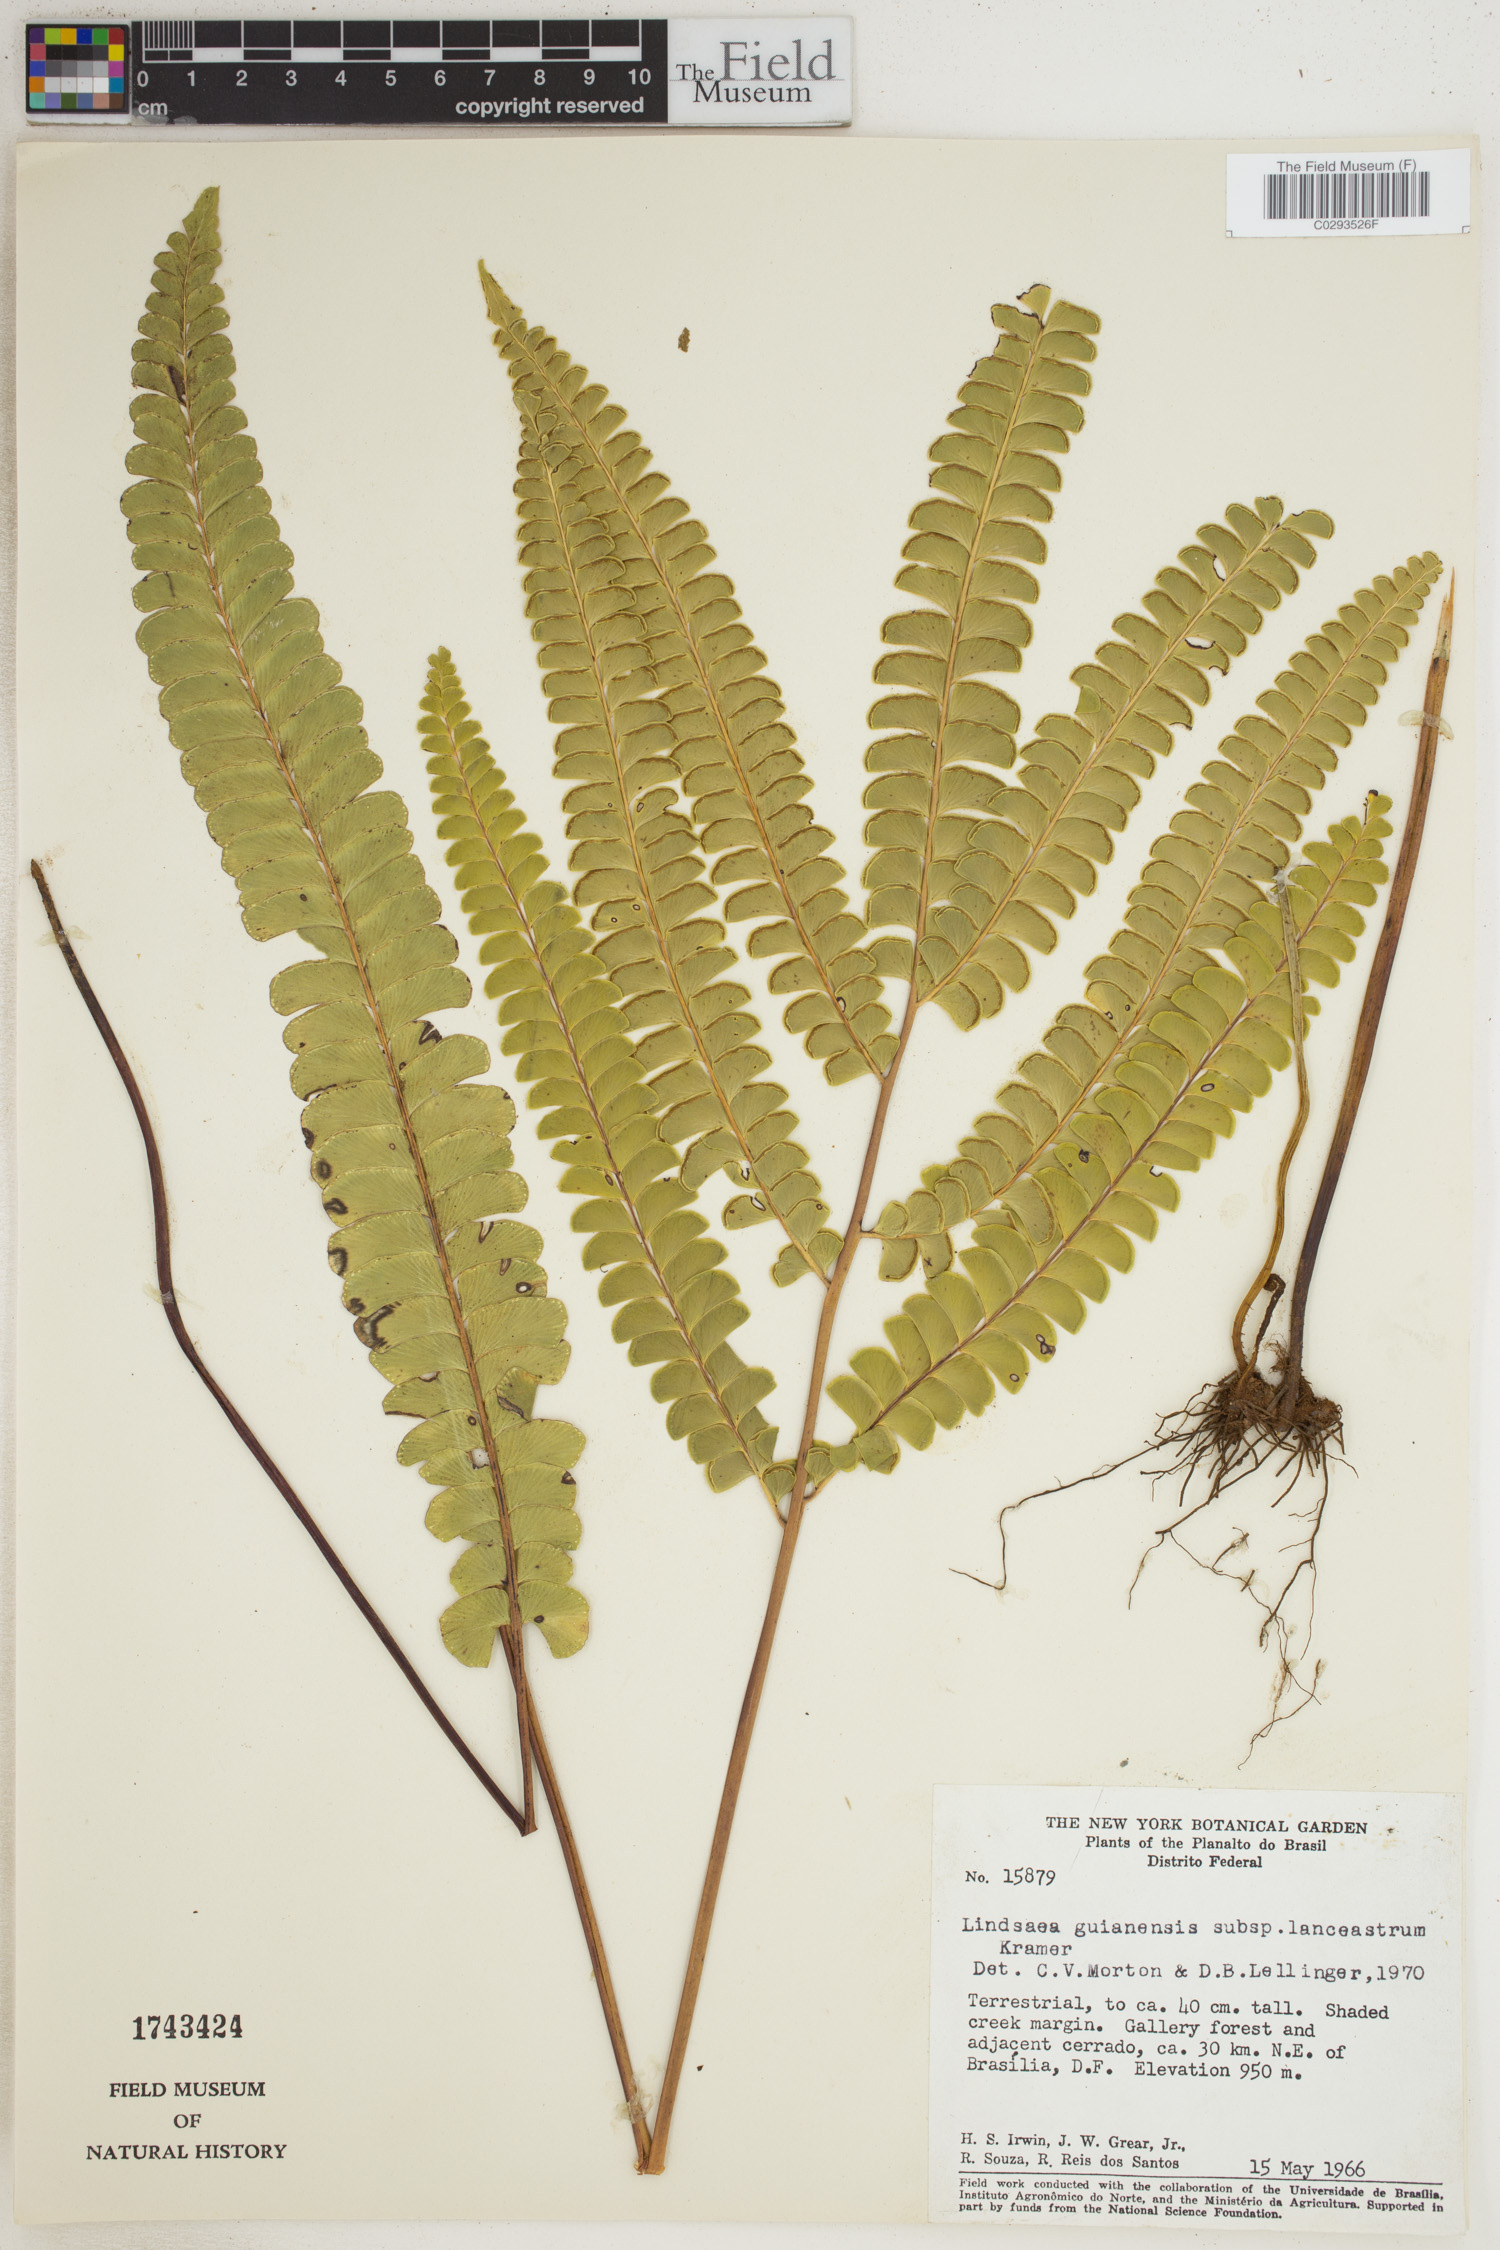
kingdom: Plantae
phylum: Tracheophyta
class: Polypodiopsida
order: Polypodiales
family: Lindsaeaceae
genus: Lindsaea
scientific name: Lindsaea guianensis
